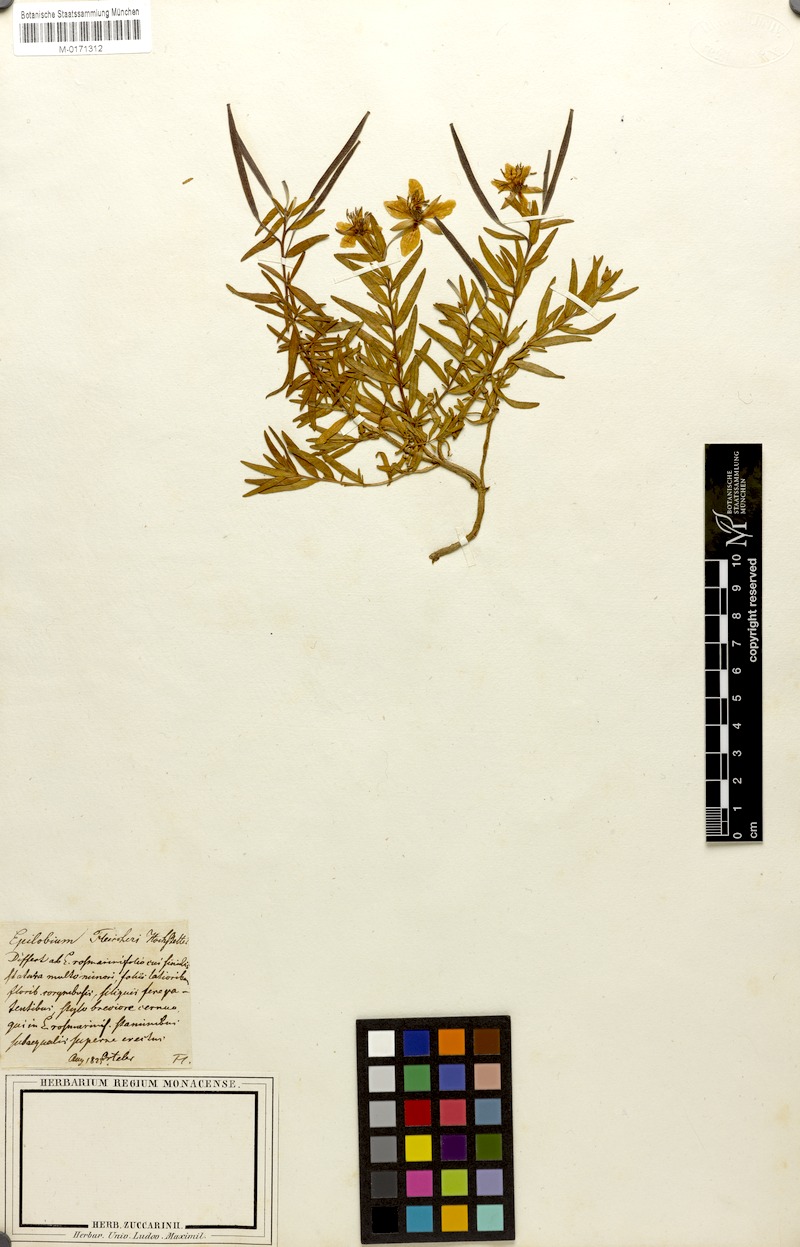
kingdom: Plantae
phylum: Tracheophyta
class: Magnoliopsida
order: Myrtales
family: Onagraceae
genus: Chamaenerion
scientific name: Chamaenerion fleischeri
